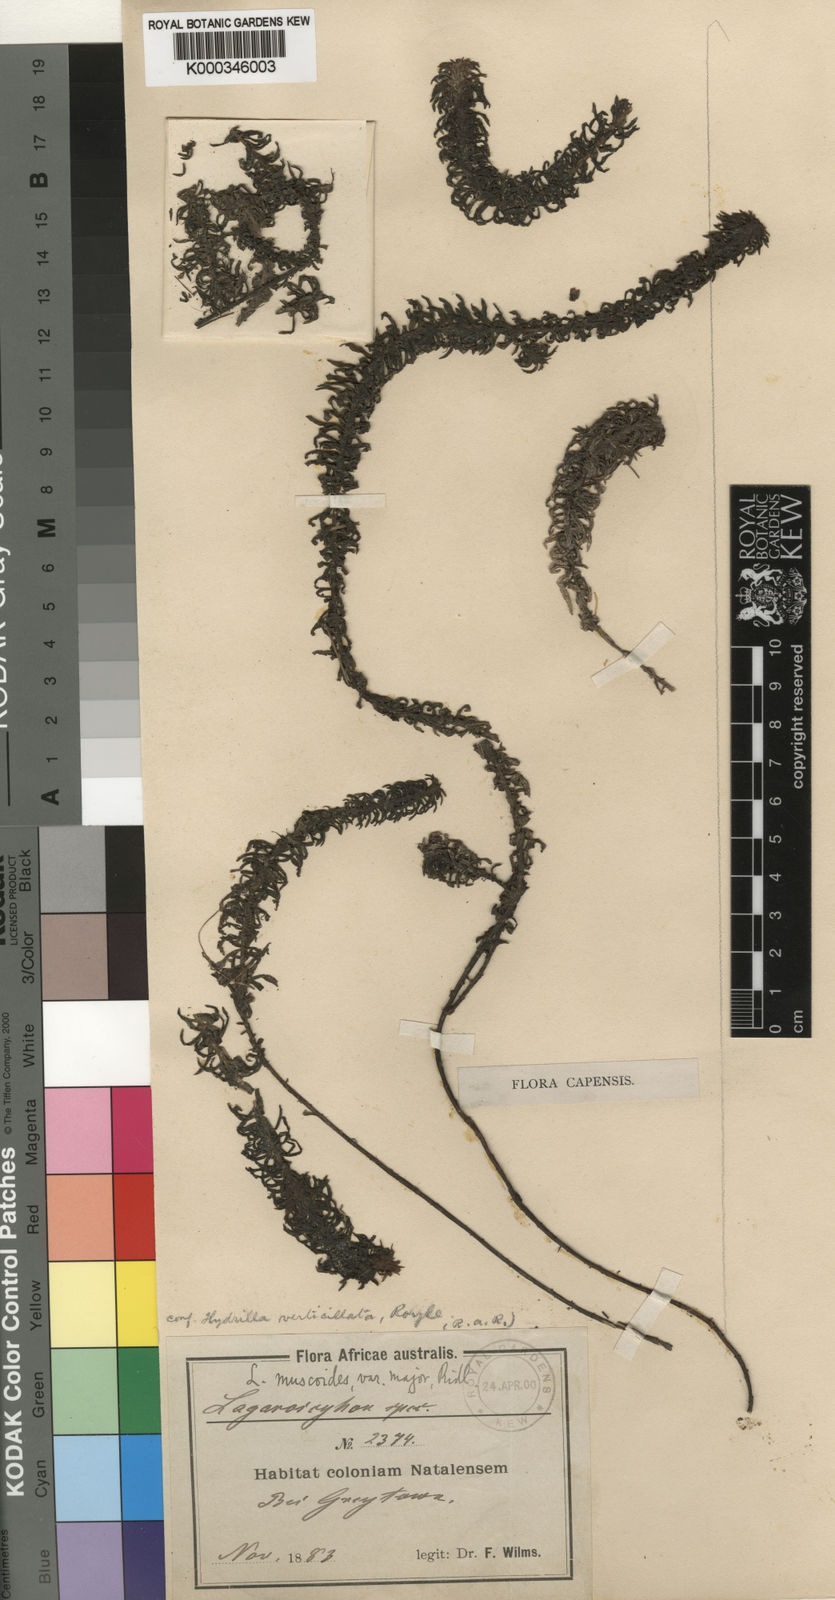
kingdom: Plantae
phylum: Tracheophyta
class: Liliopsida
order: Alismatales
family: Hydrocharitaceae
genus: Lagarosiphon
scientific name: Lagarosiphon
